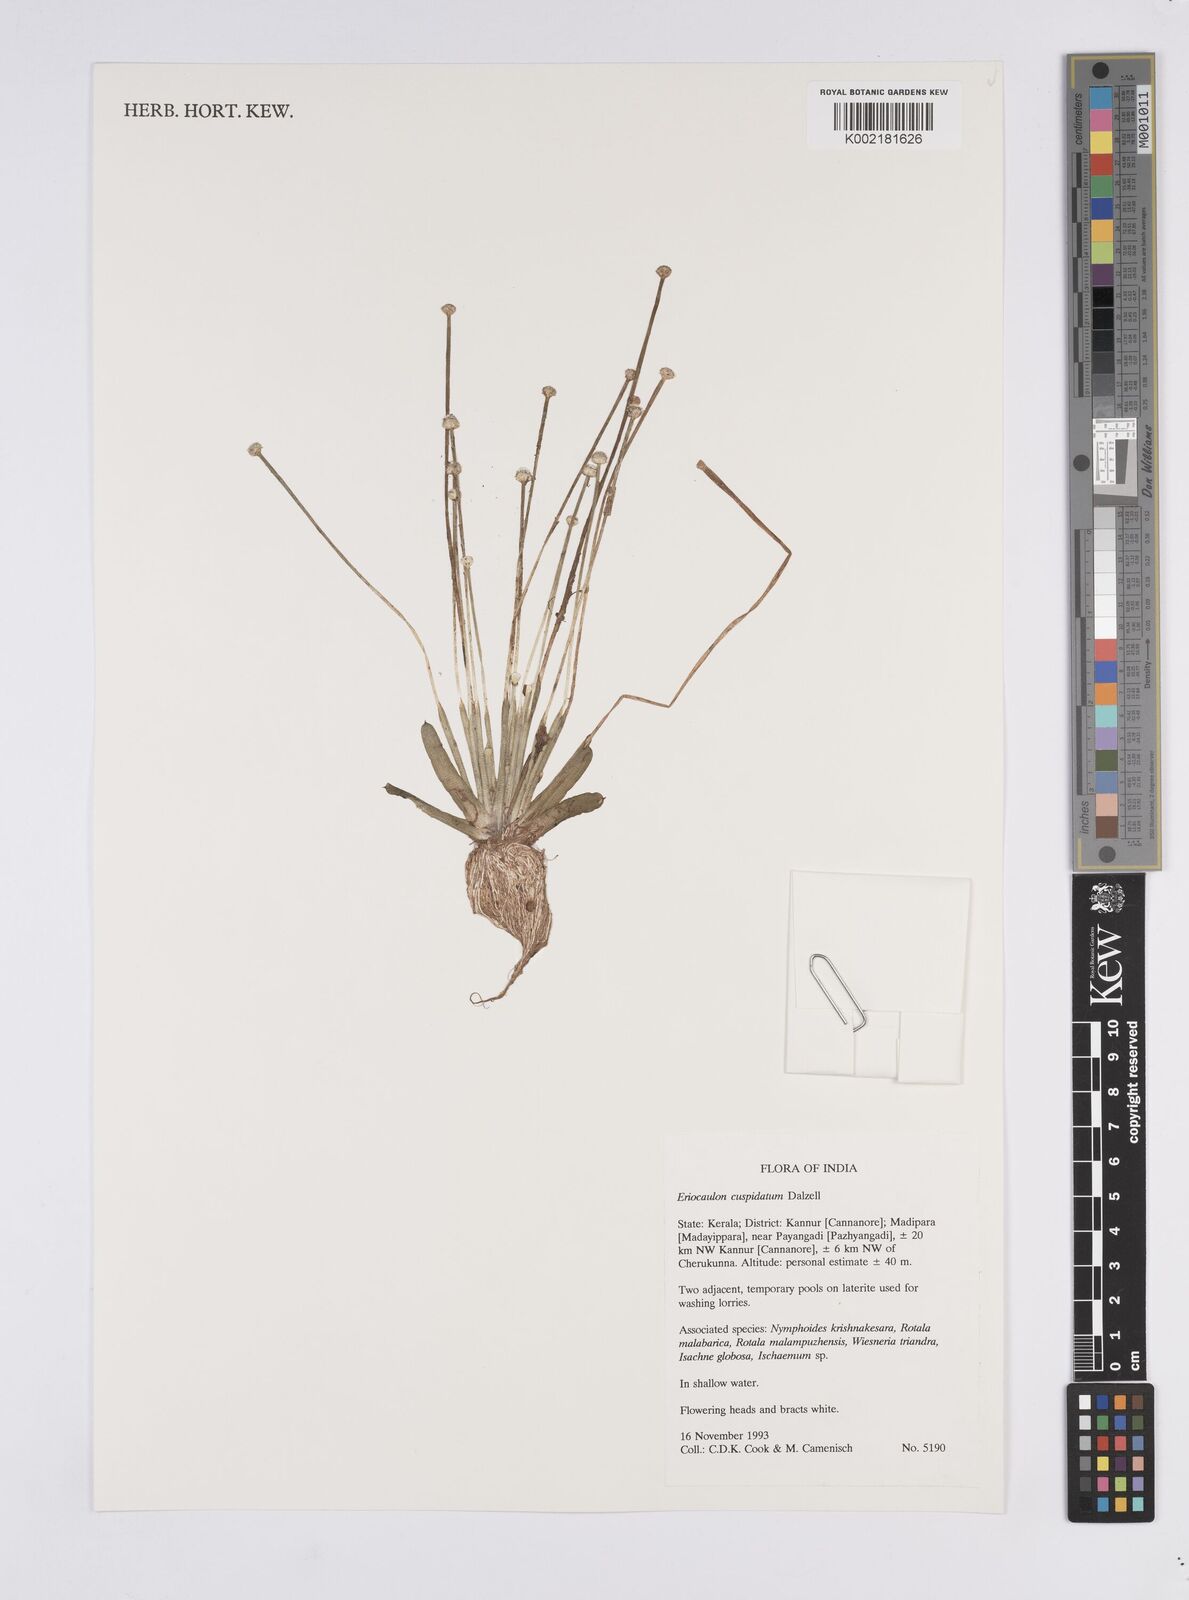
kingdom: Plantae
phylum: Tracheophyta
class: Liliopsida
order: Poales
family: Eriocaulaceae
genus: Eriocaulon
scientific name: Eriocaulon cuspidatum
